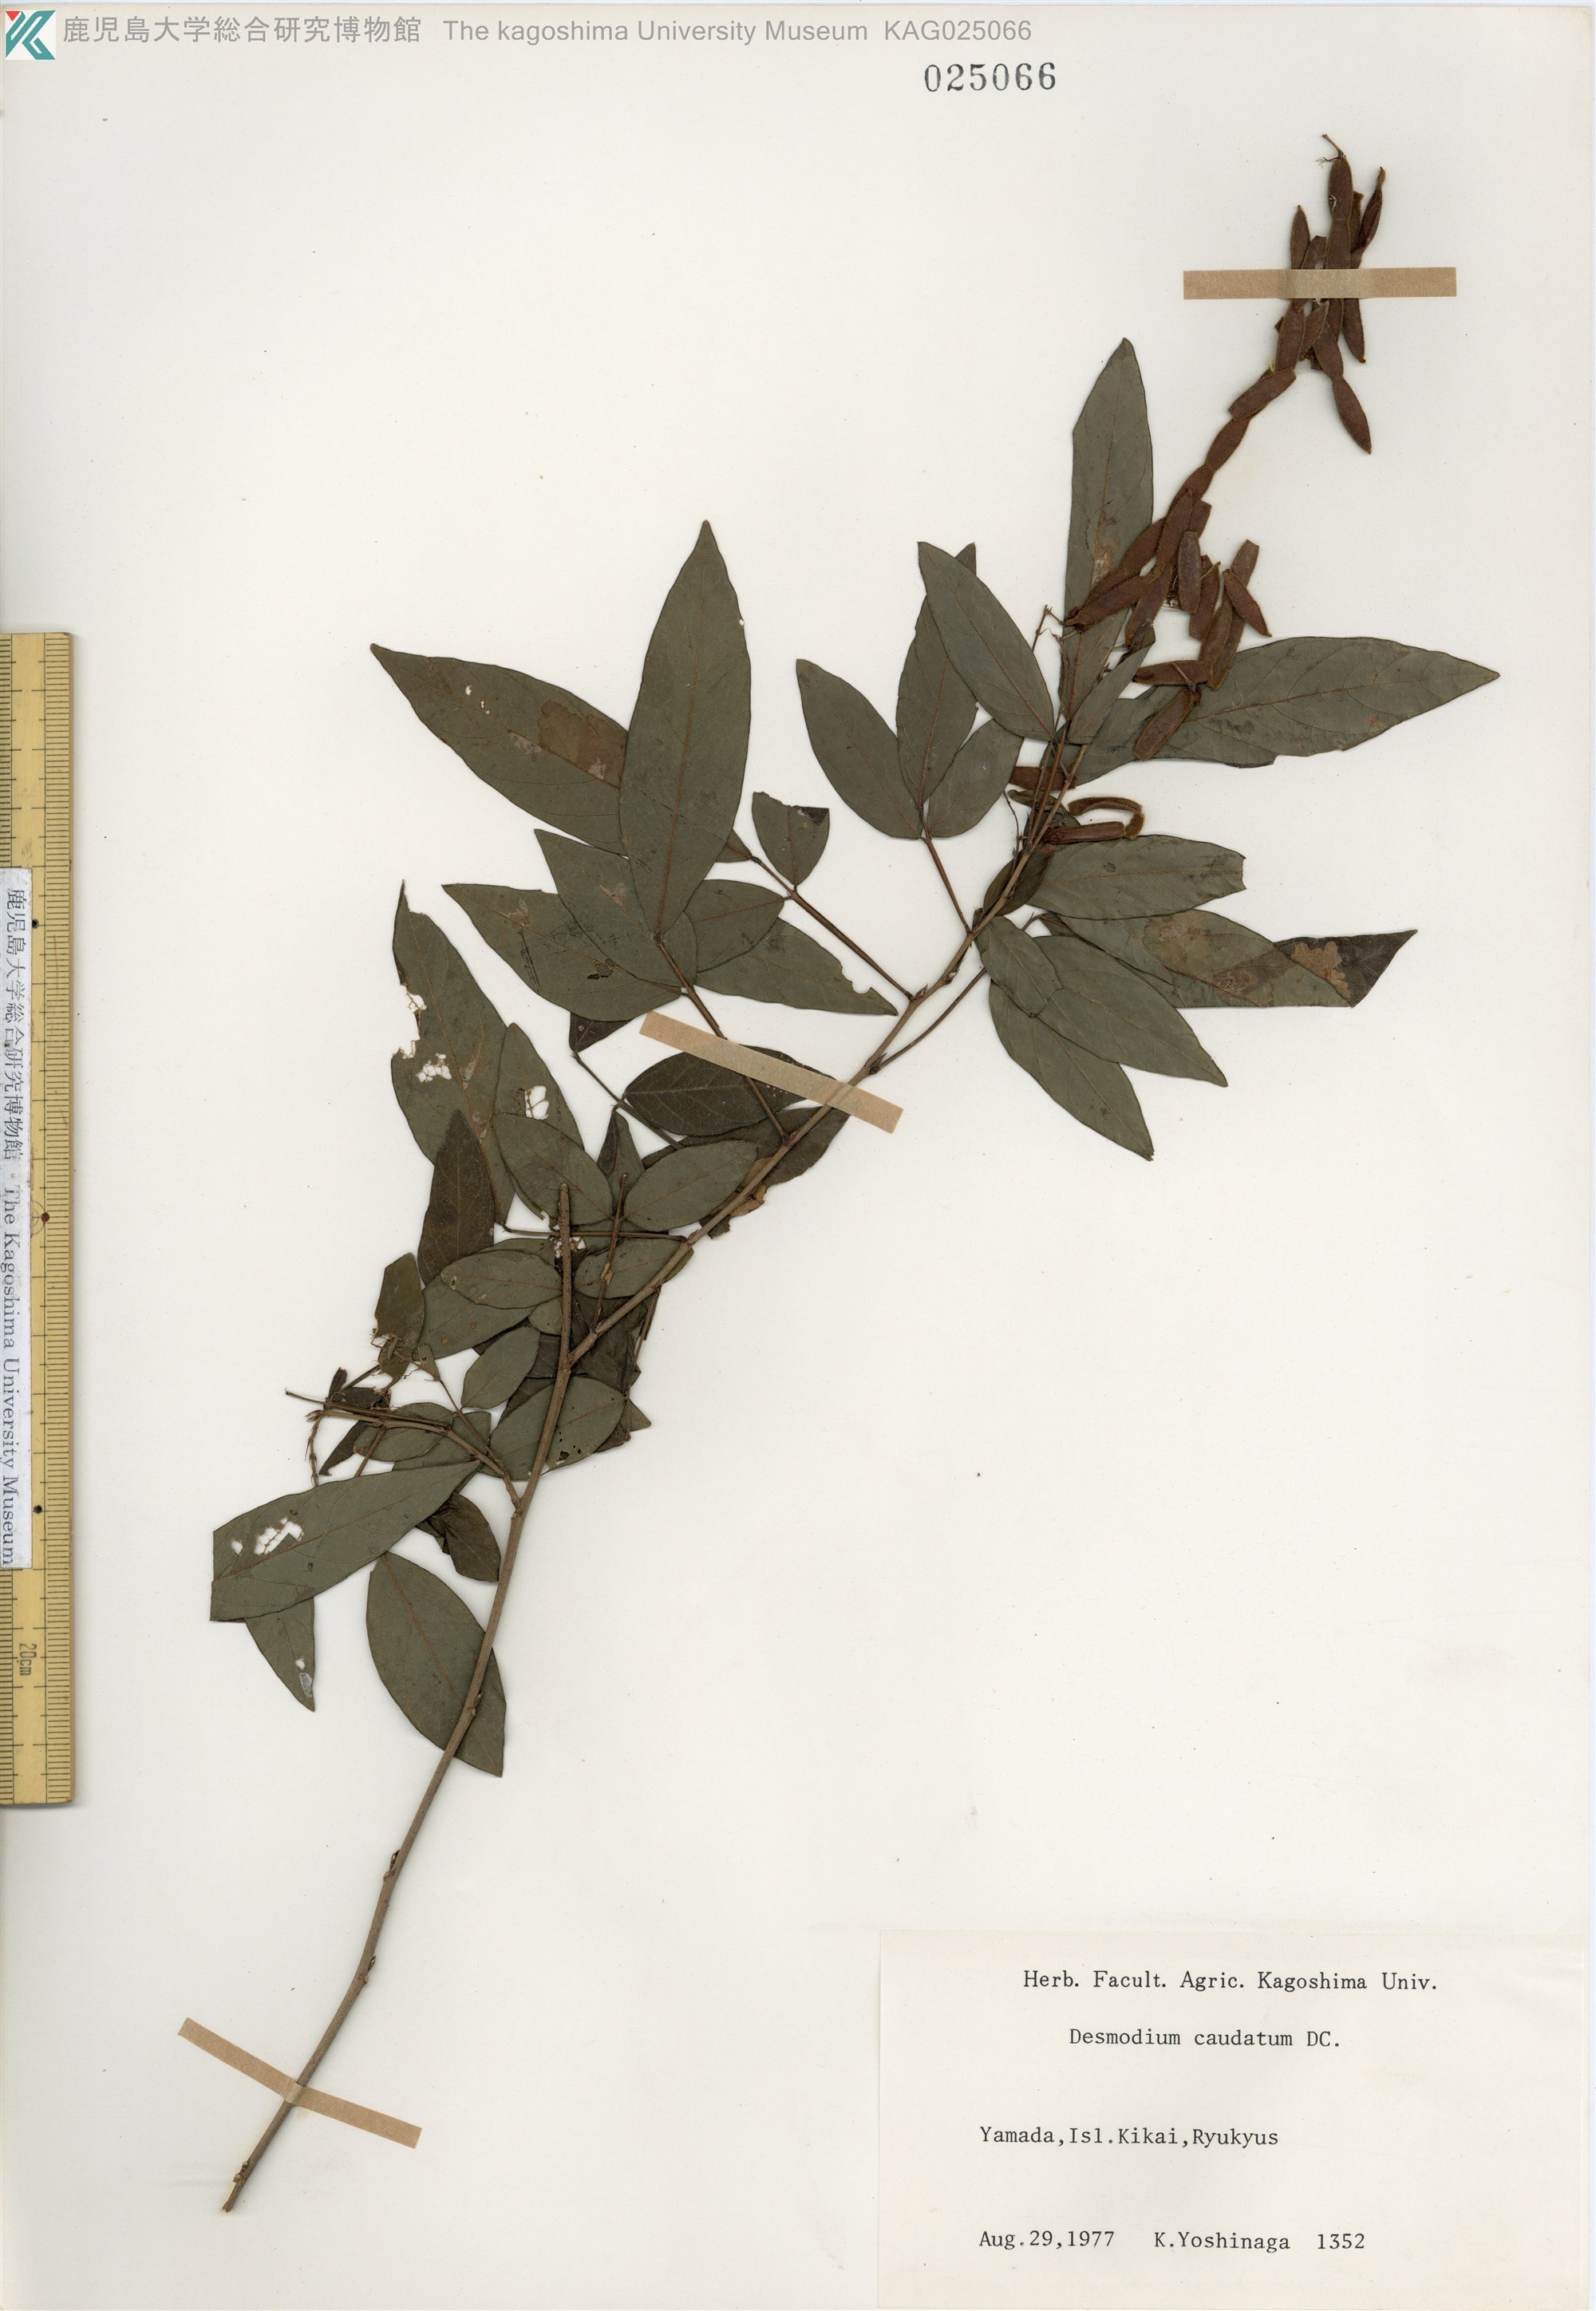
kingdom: Plantae
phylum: Tracheophyta
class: Magnoliopsida
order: Fabales
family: Fabaceae
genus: Ohwia
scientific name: Ohwia caudata
